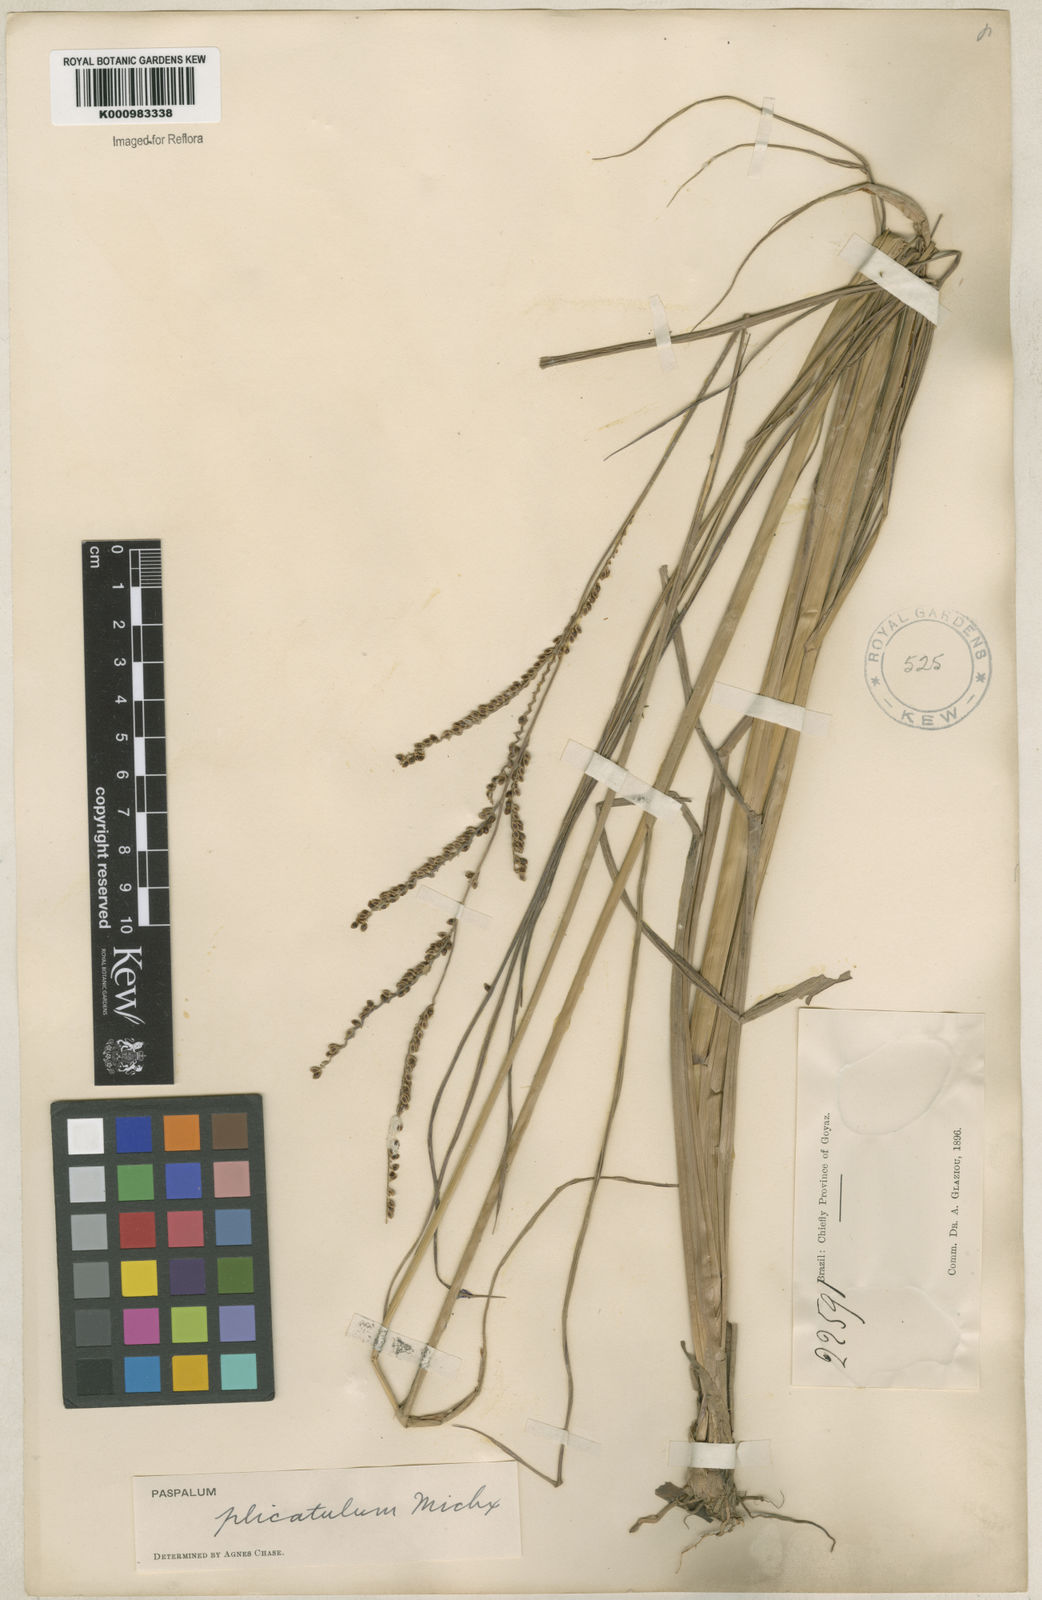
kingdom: Plantae
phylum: Tracheophyta
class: Liliopsida
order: Poales
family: Poaceae
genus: Paspalum
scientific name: Paspalum plicatulum
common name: Top paspalum
